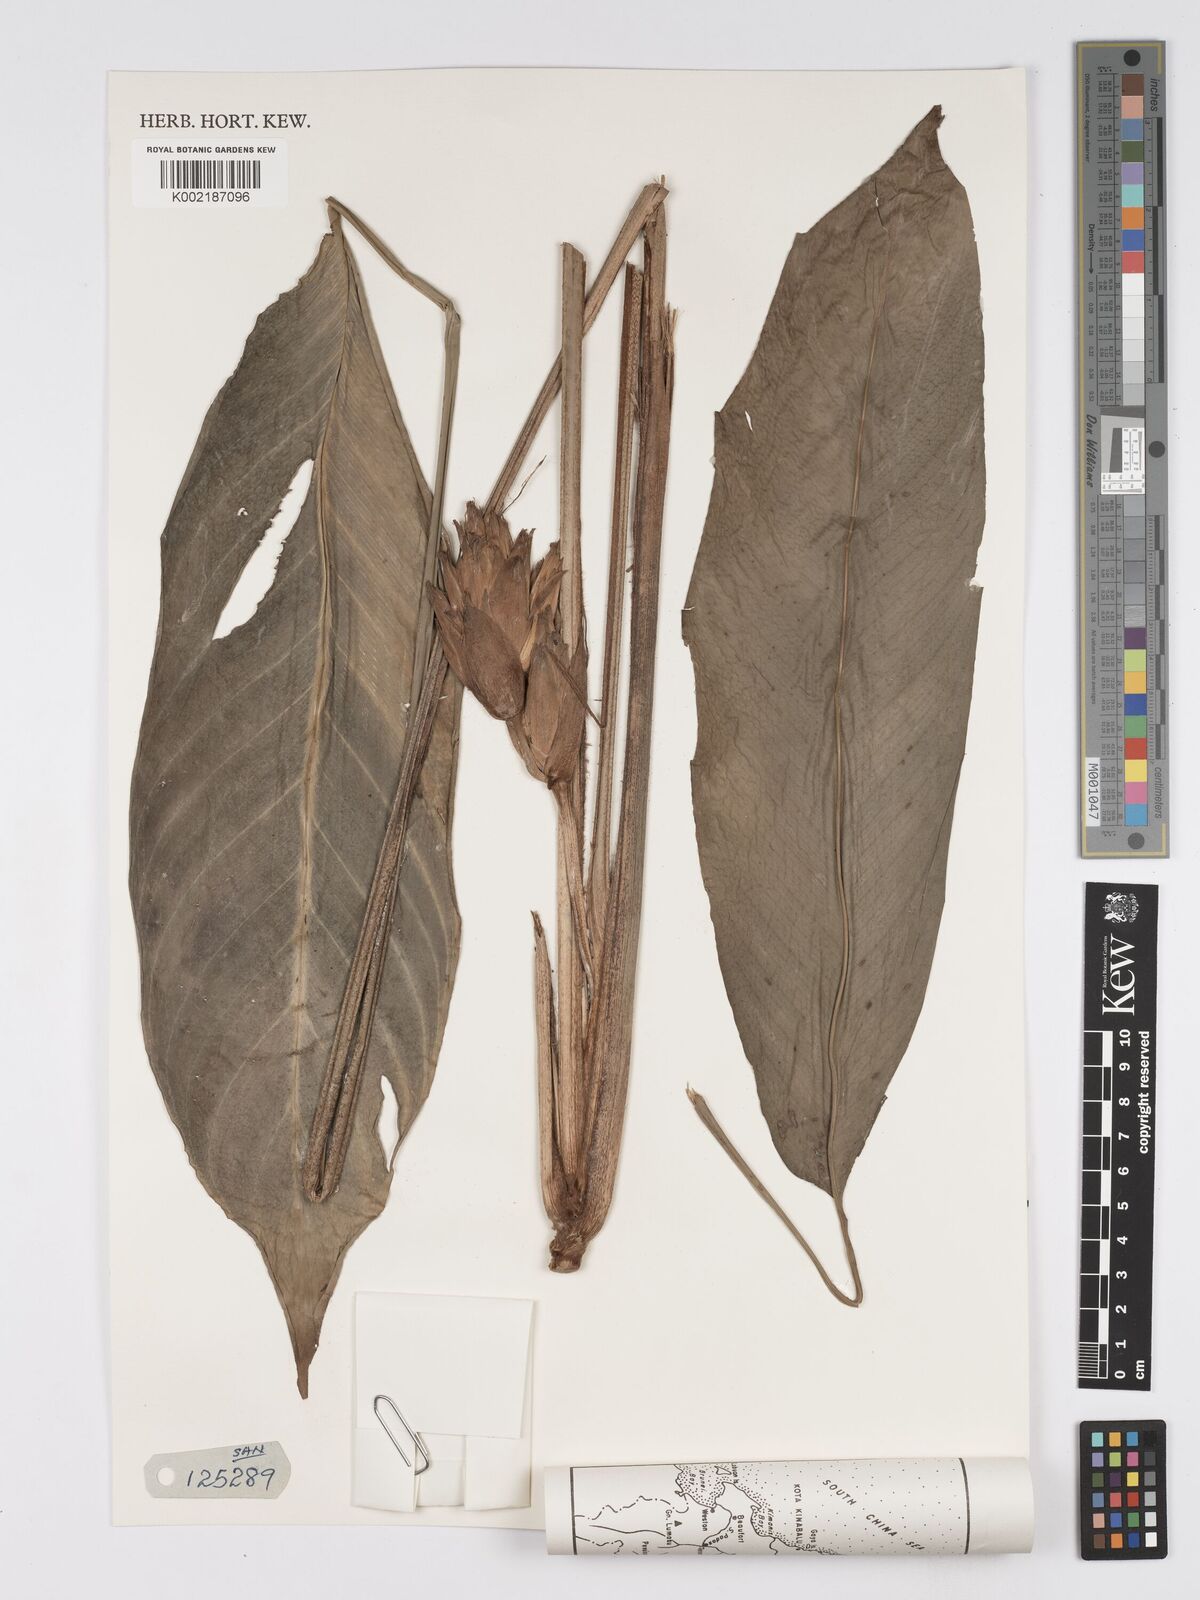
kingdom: Plantae
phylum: Tracheophyta
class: Liliopsida
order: Zingiberales
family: Marantaceae
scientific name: Marantaceae
